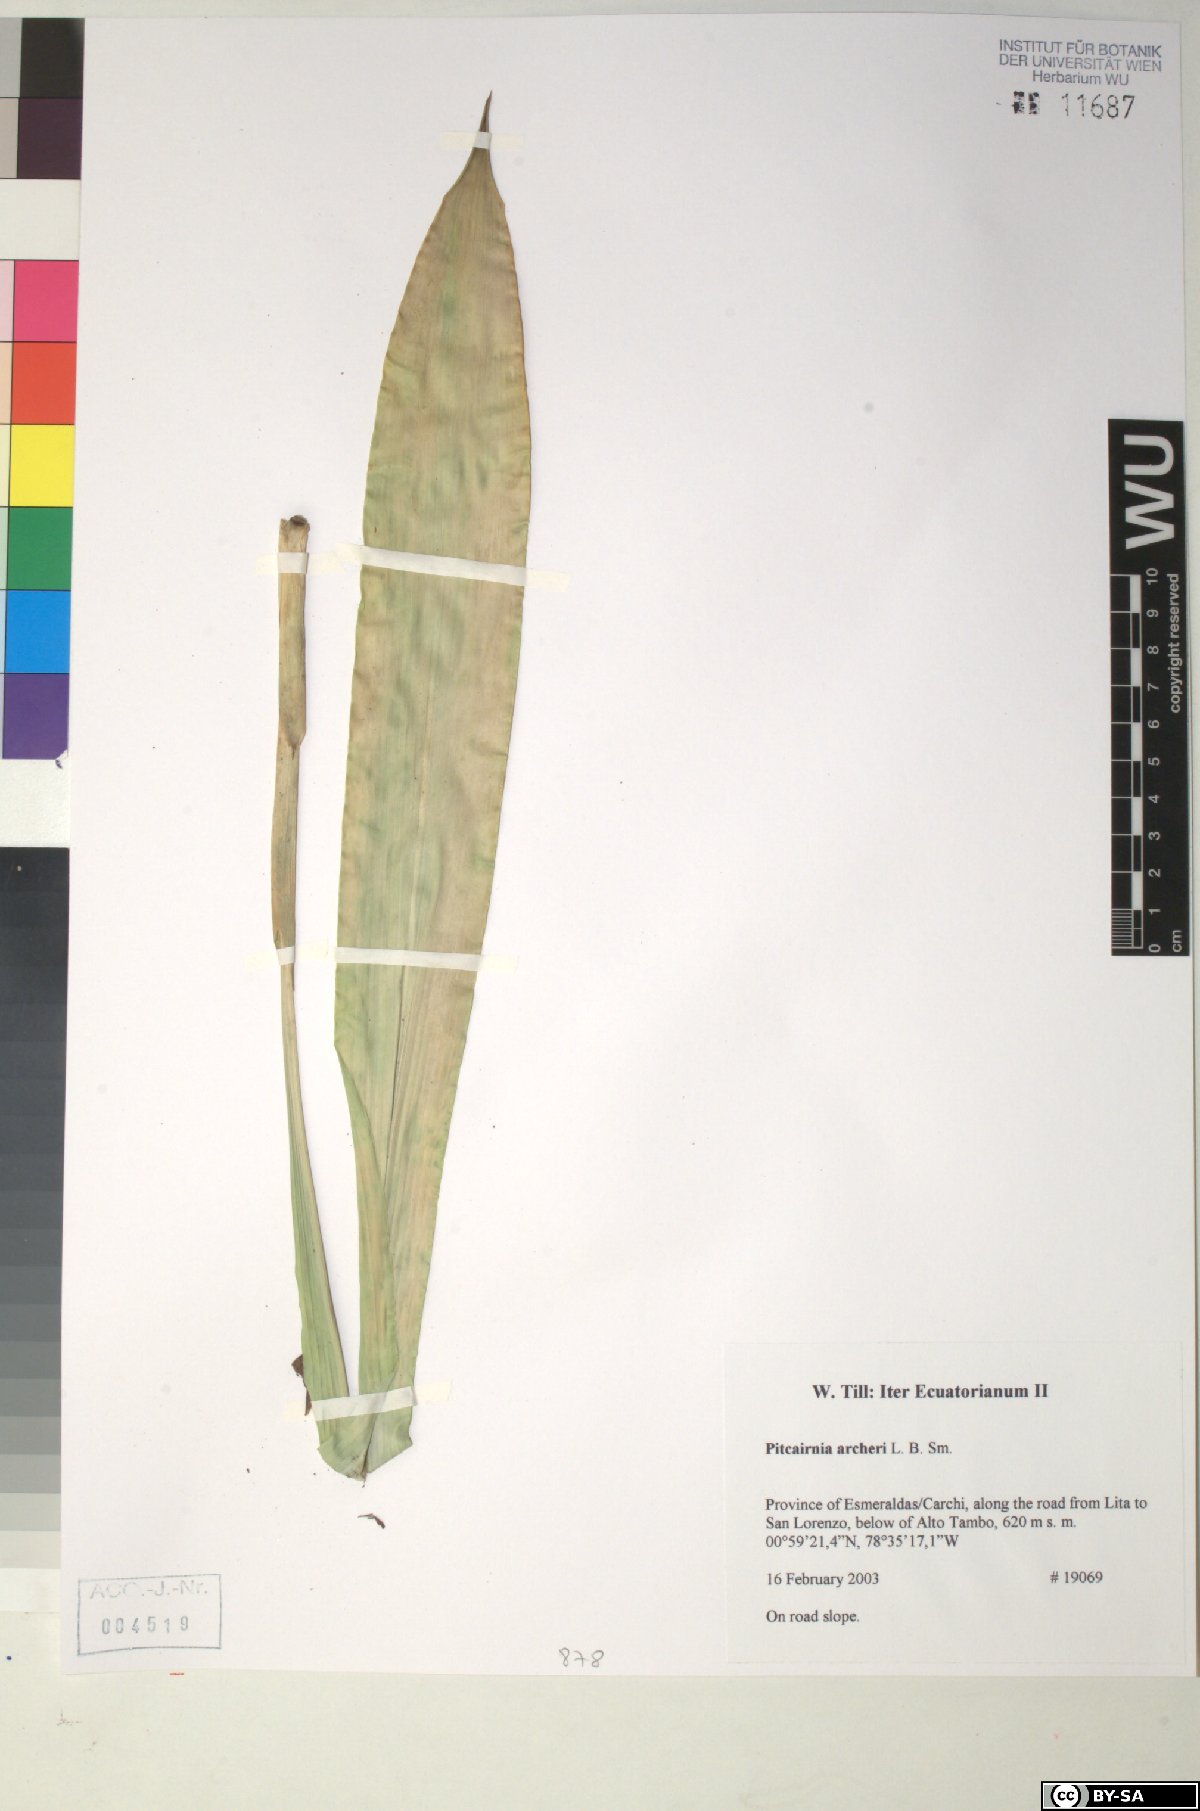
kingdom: Plantae
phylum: Tracheophyta
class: Liliopsida
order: Poales
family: Bromeliaceae
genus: Pitcairnia
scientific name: Pitcairnia archeri
